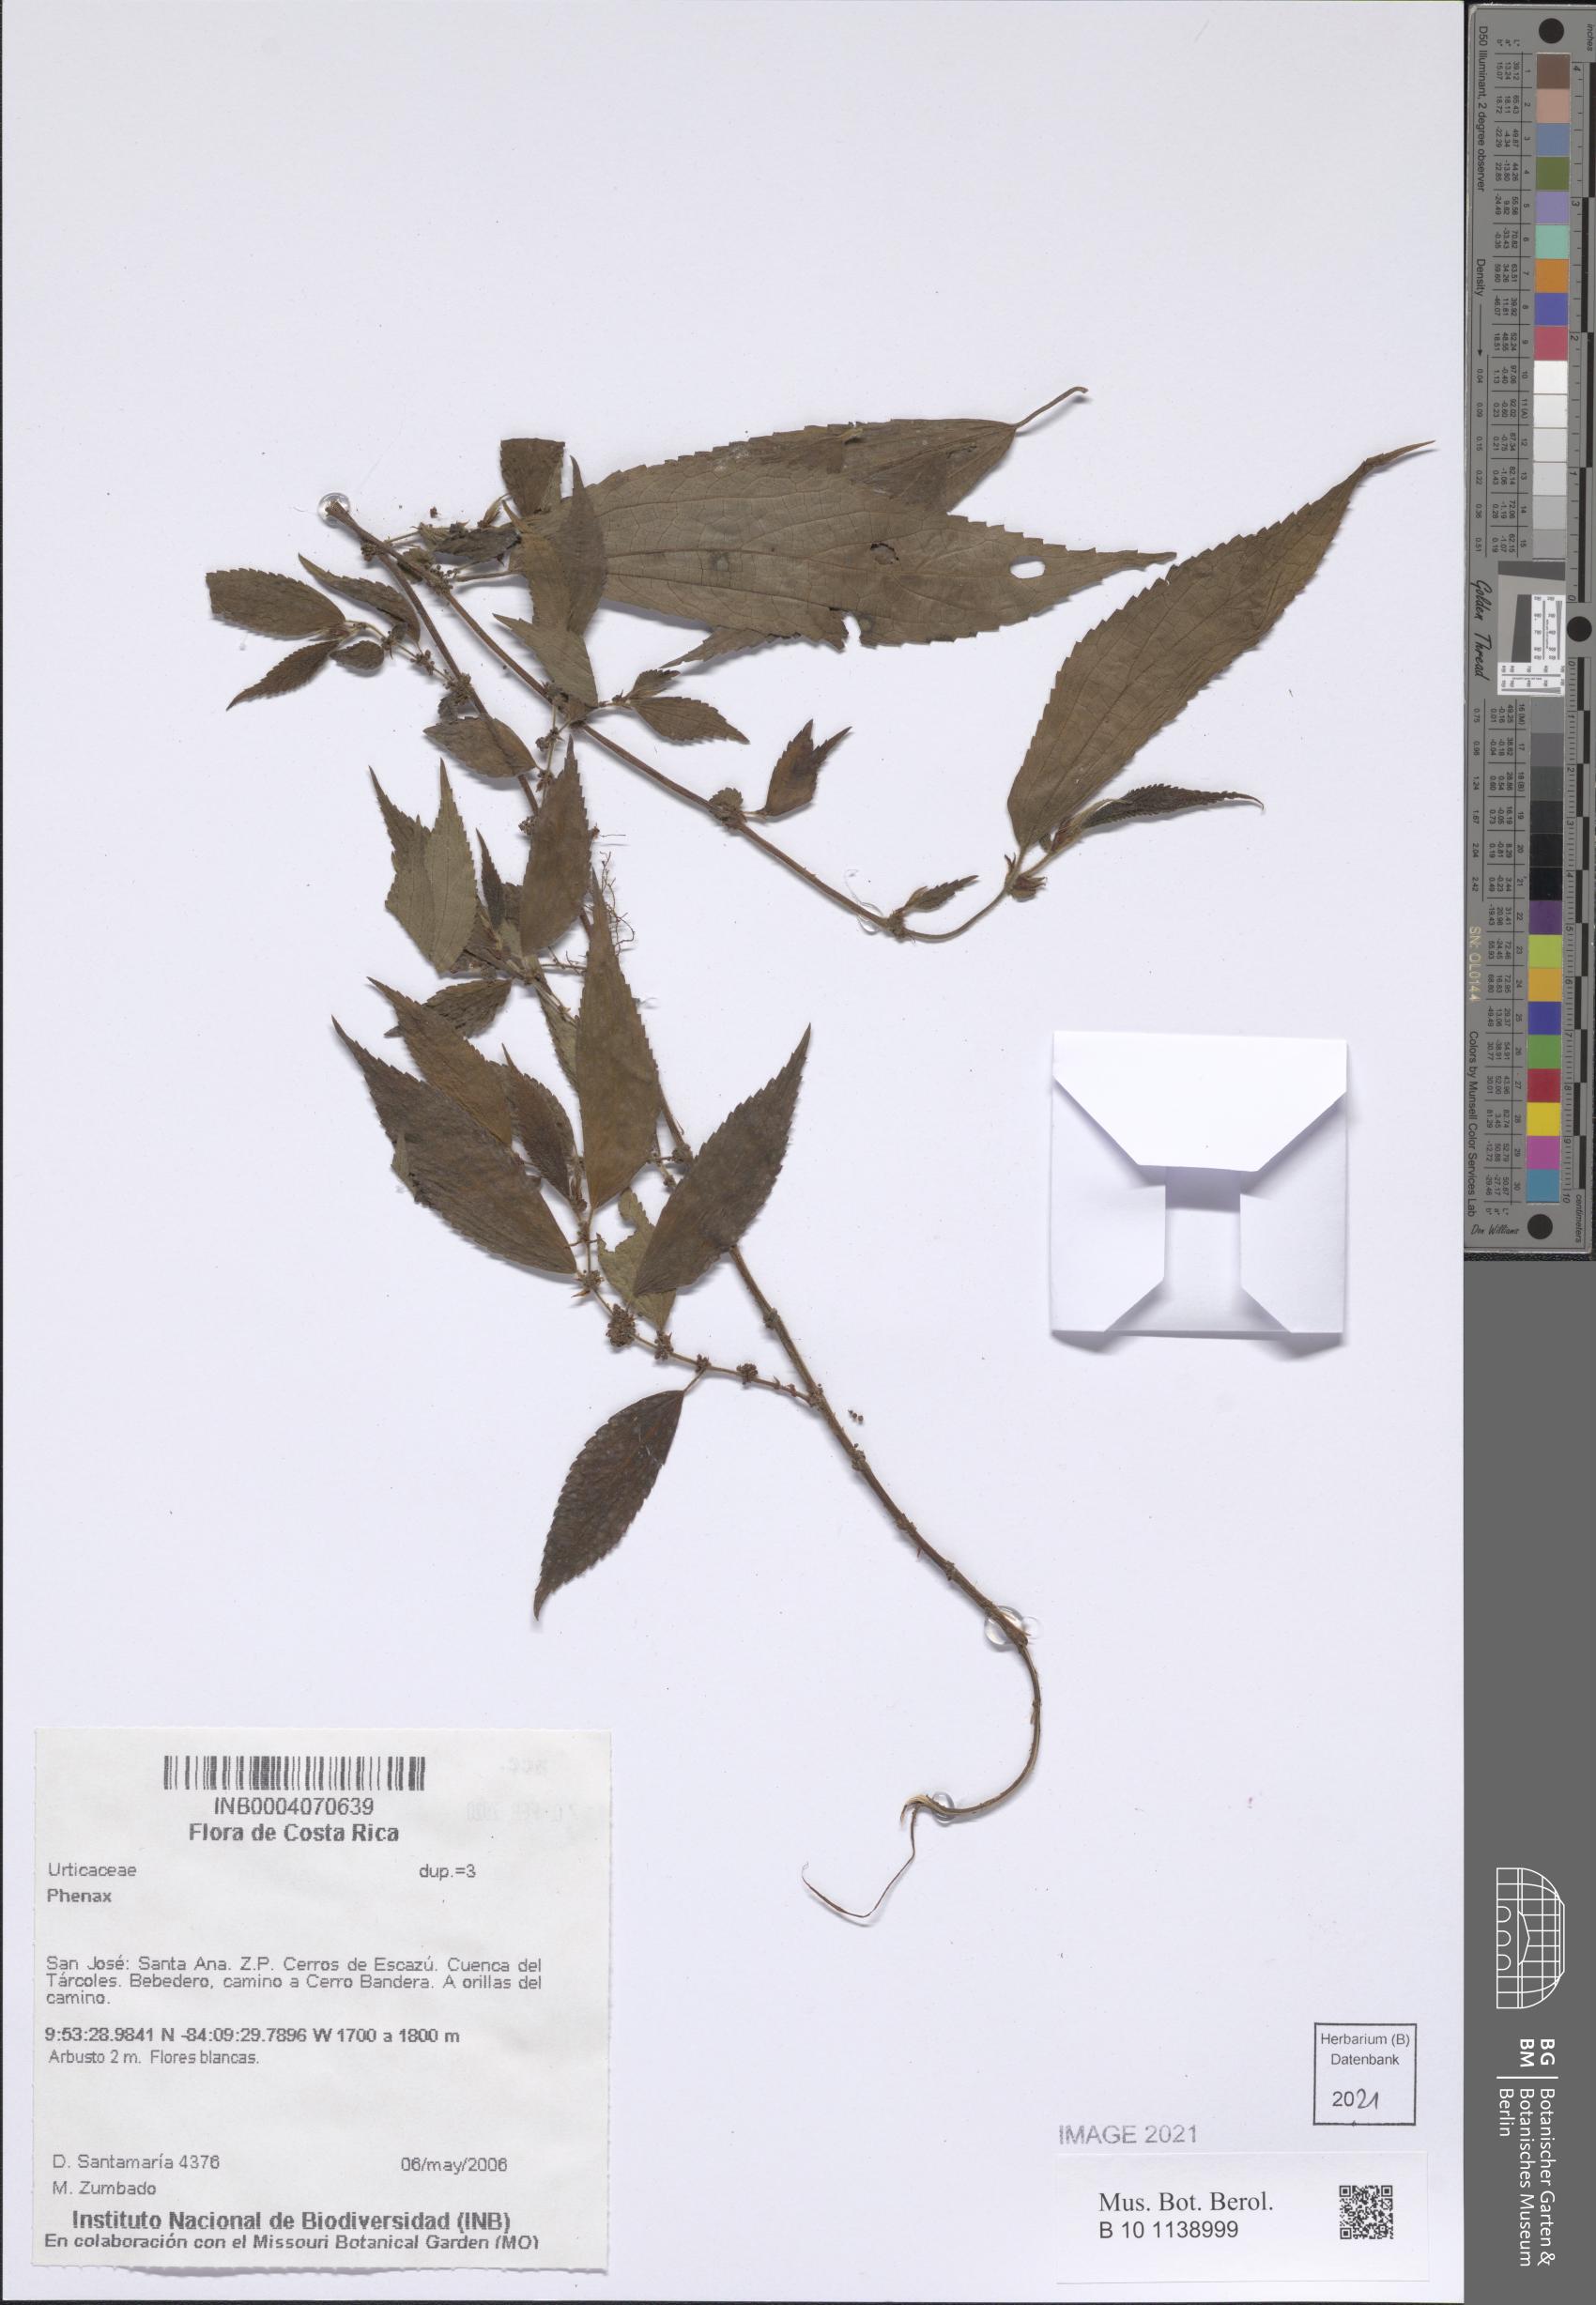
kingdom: Plantae
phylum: Tracheophyta
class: Magnoliopsida
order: Rosales
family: Urticaceae
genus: Phenax
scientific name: Phenax
